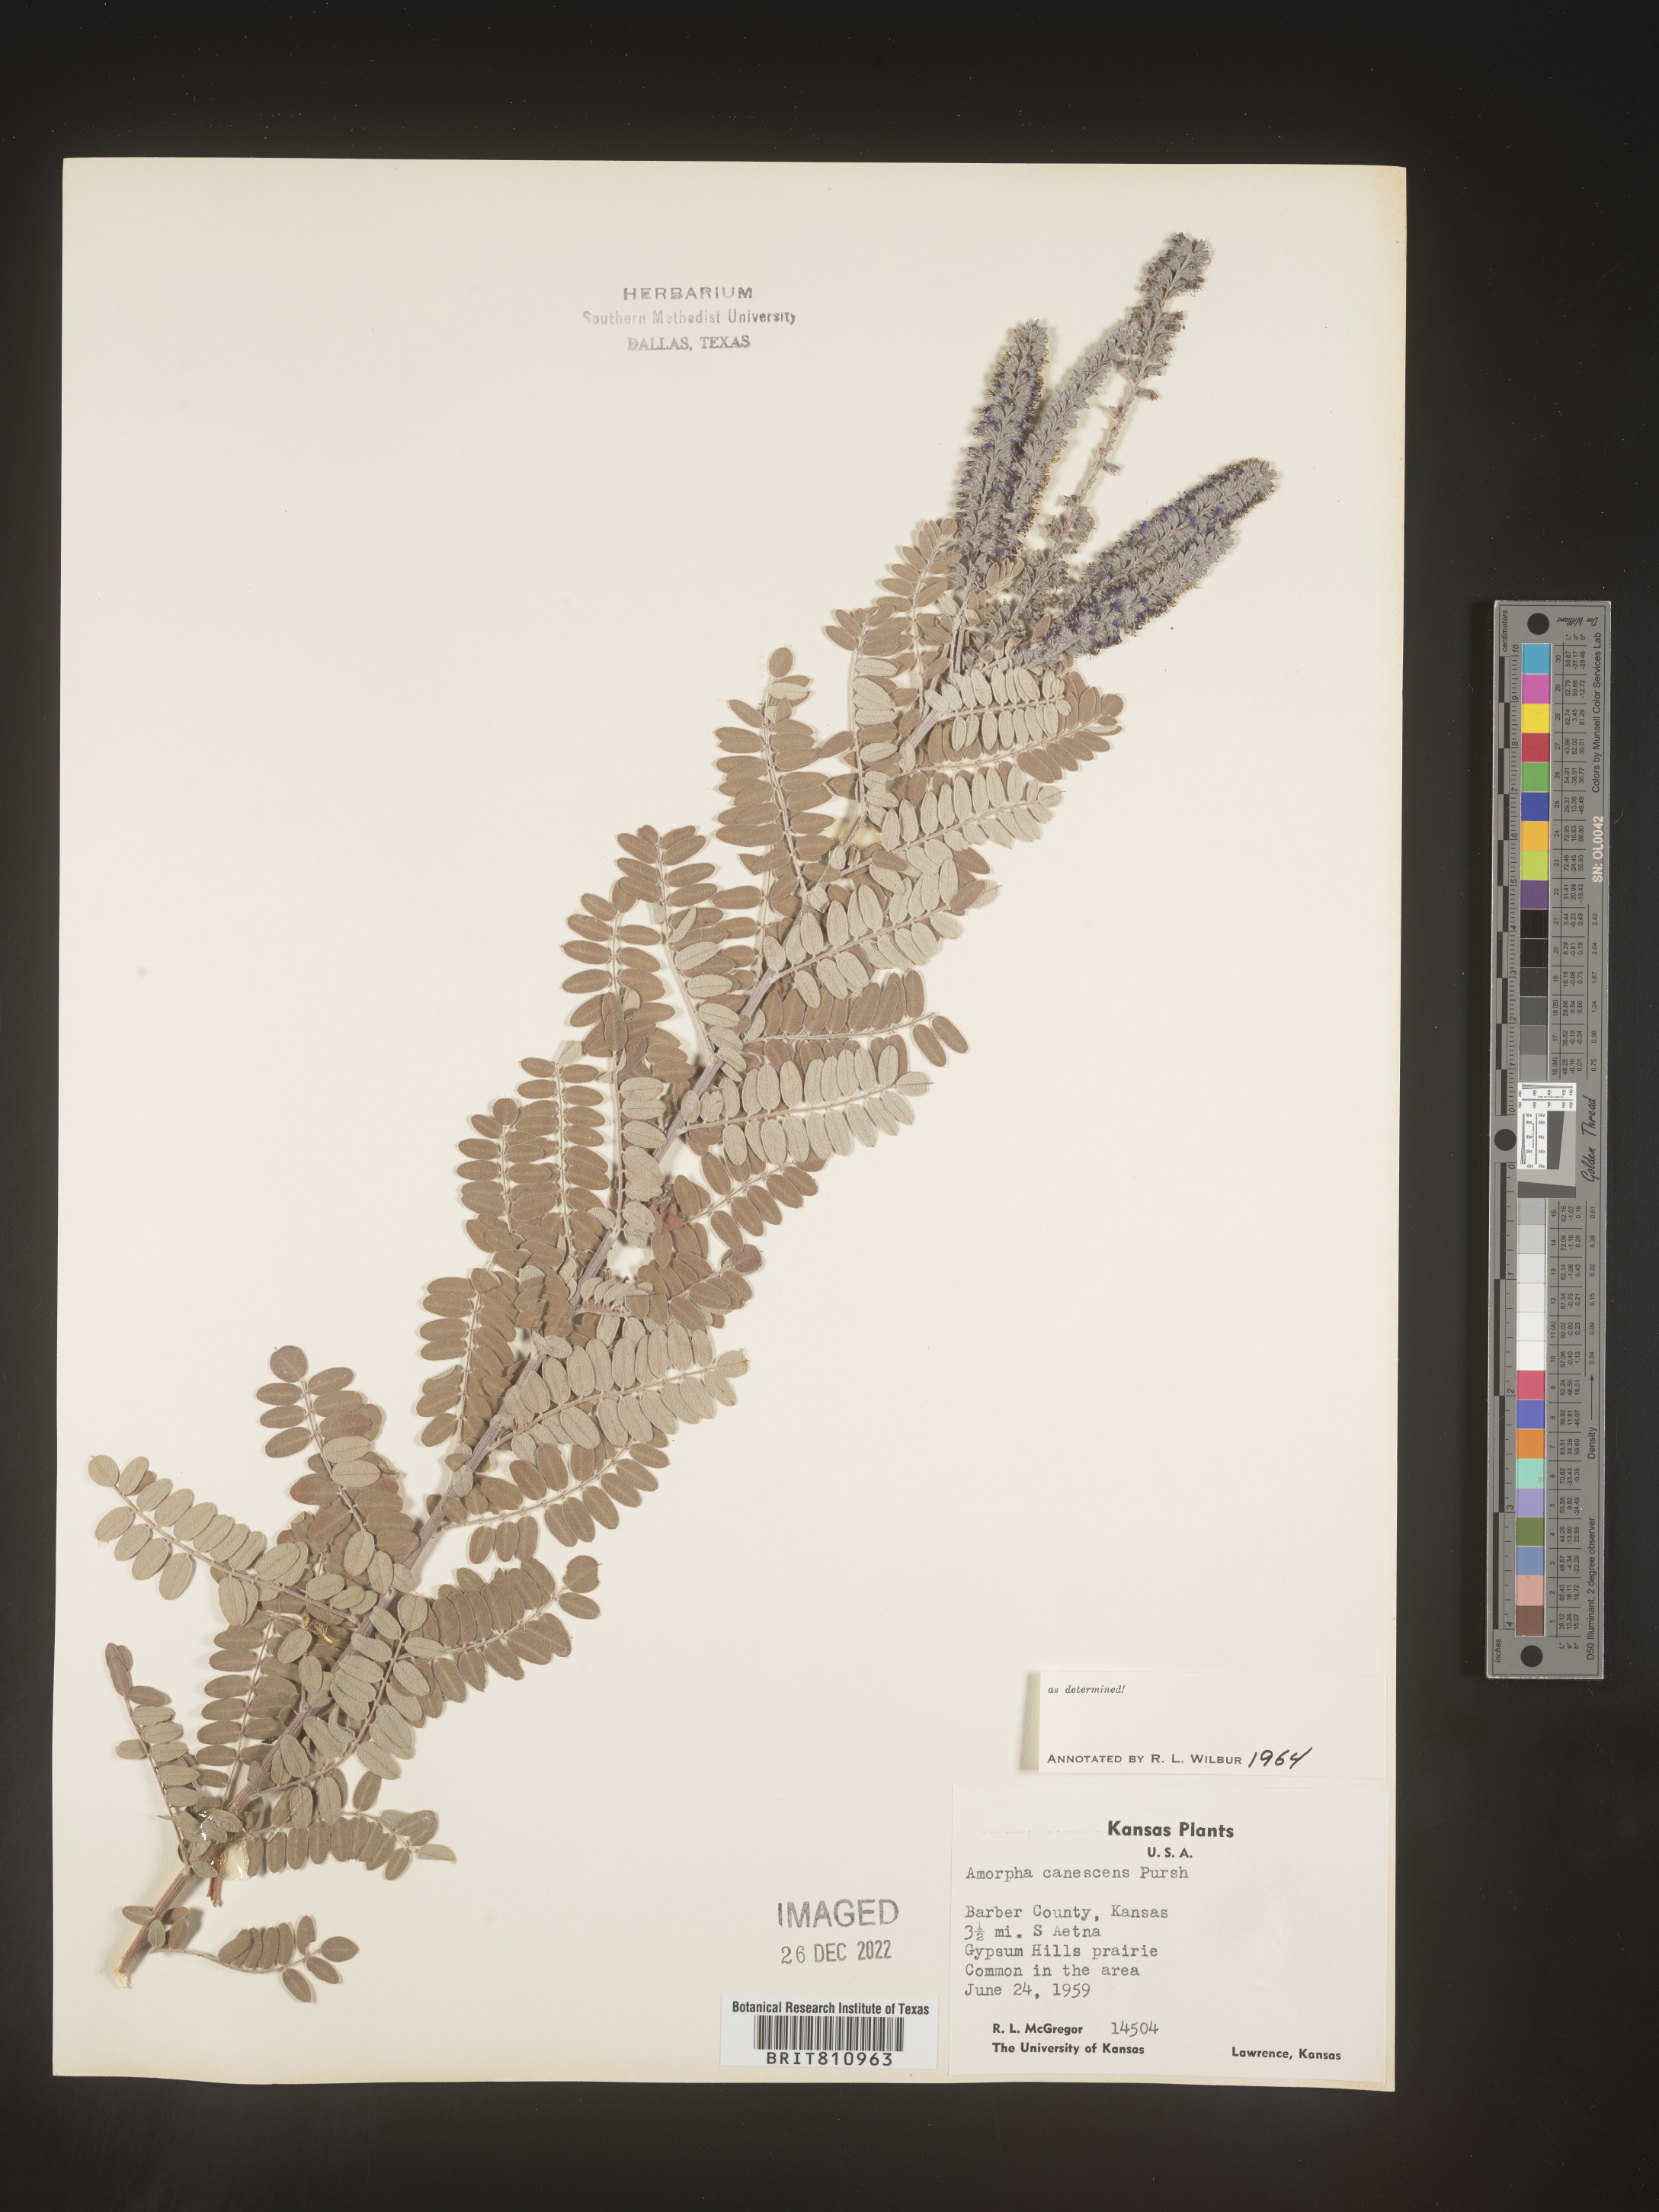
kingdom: Plantae
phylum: Tracheophyta
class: Magnoliopsida
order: Fabales
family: Fabaceae
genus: Amorpha
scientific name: Amorpha canescens
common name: Leadplant
